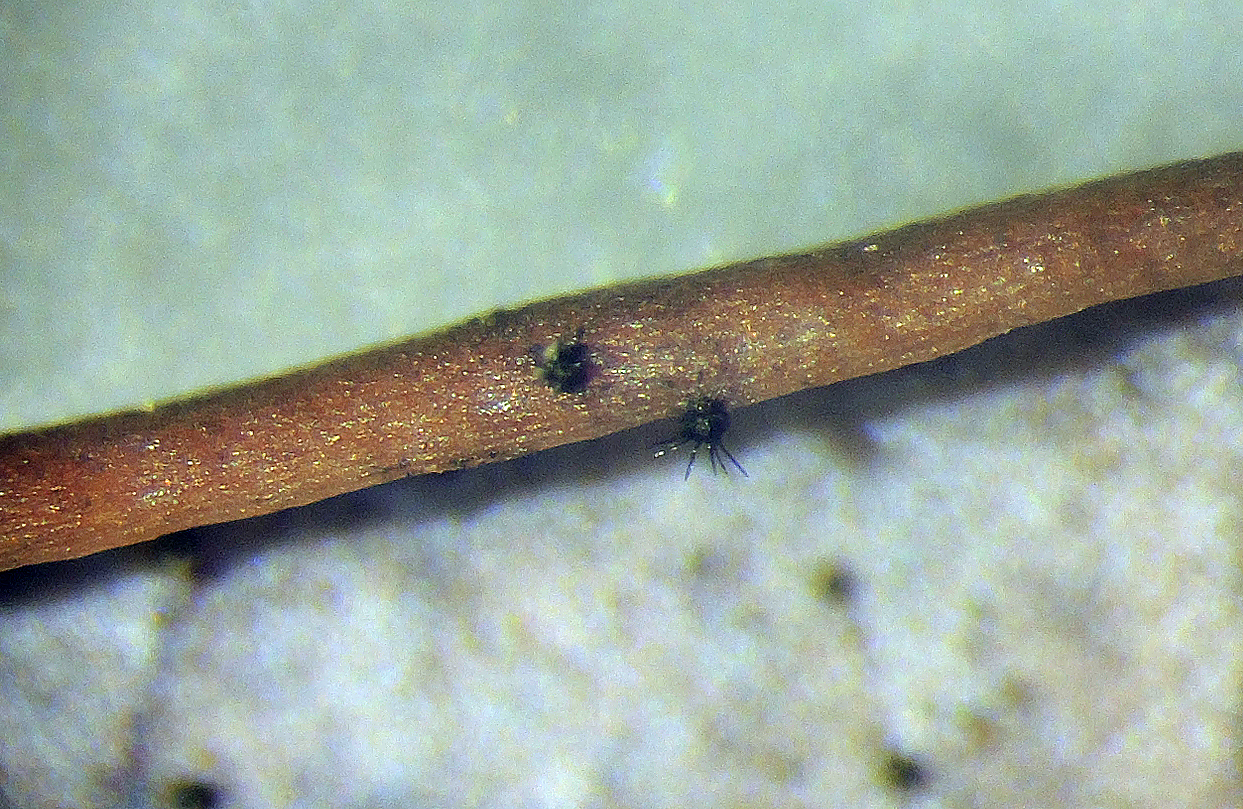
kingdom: Fungi
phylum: Ascomycota
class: Dothideomycetes
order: Venturiales
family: Venturiaceae
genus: Gibbera
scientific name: Gibbera andromedae
